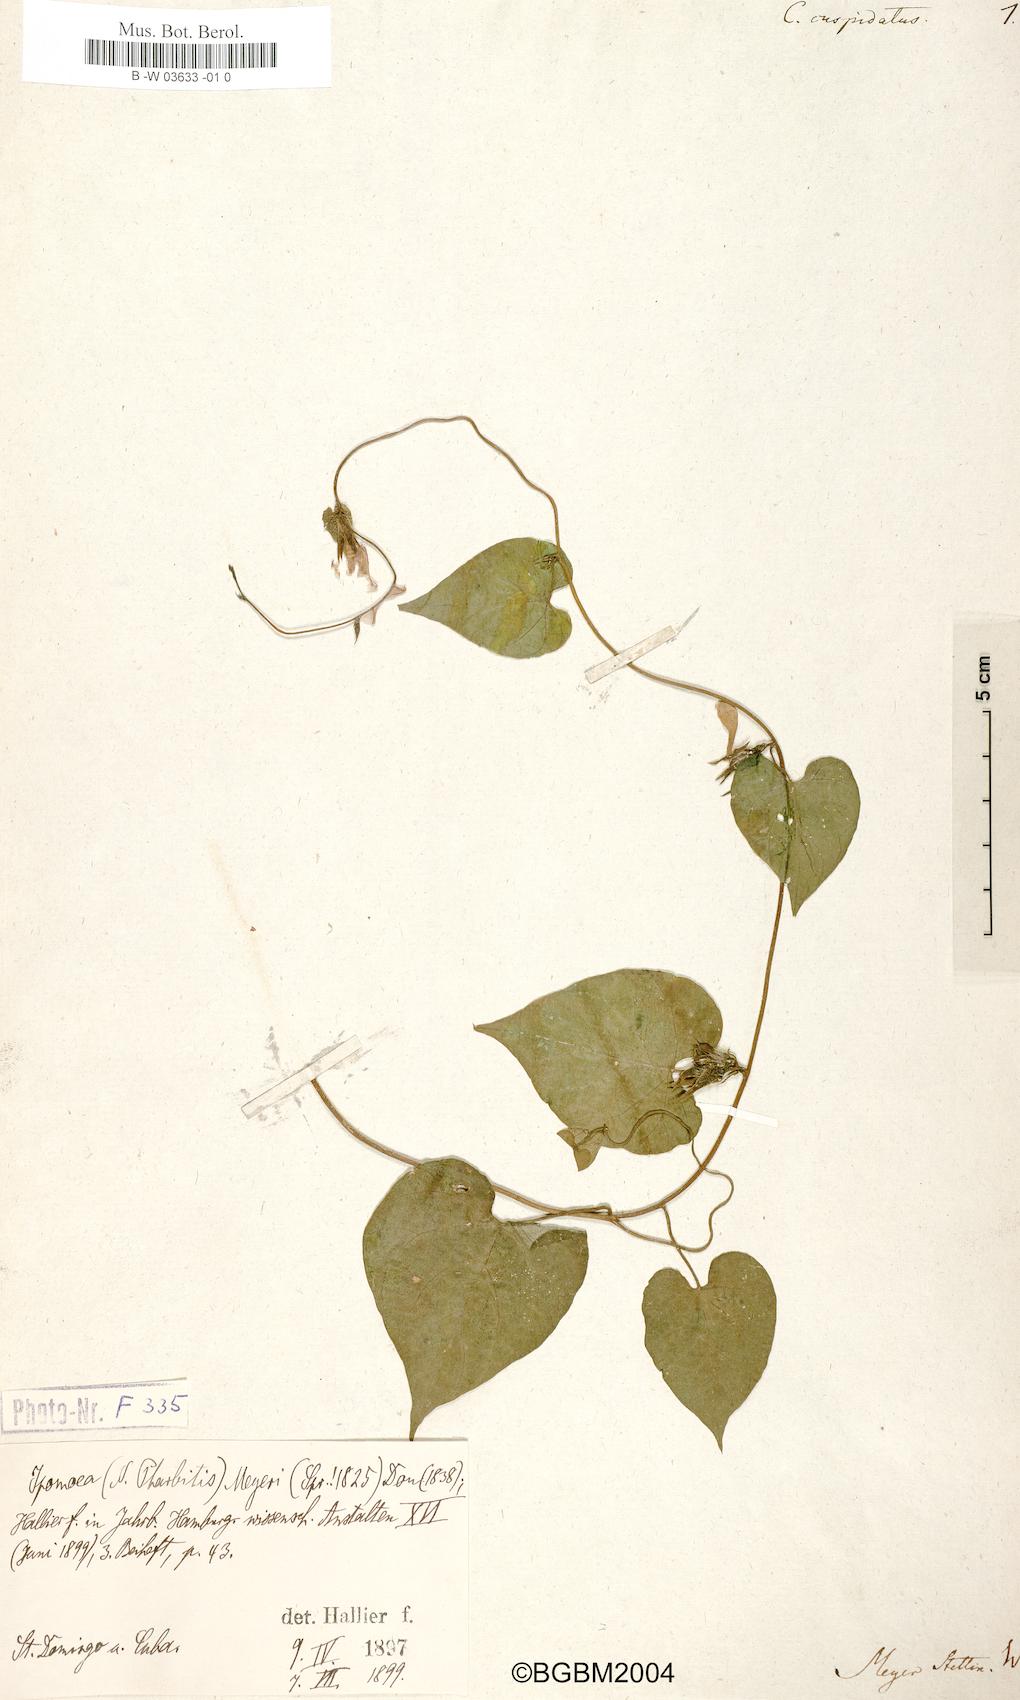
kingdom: Plantae
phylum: Tracheophyta
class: Magnoliopsida
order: Solanales
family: Convolvulaceae
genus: Ipomoea
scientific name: Ipomoea meyeri
